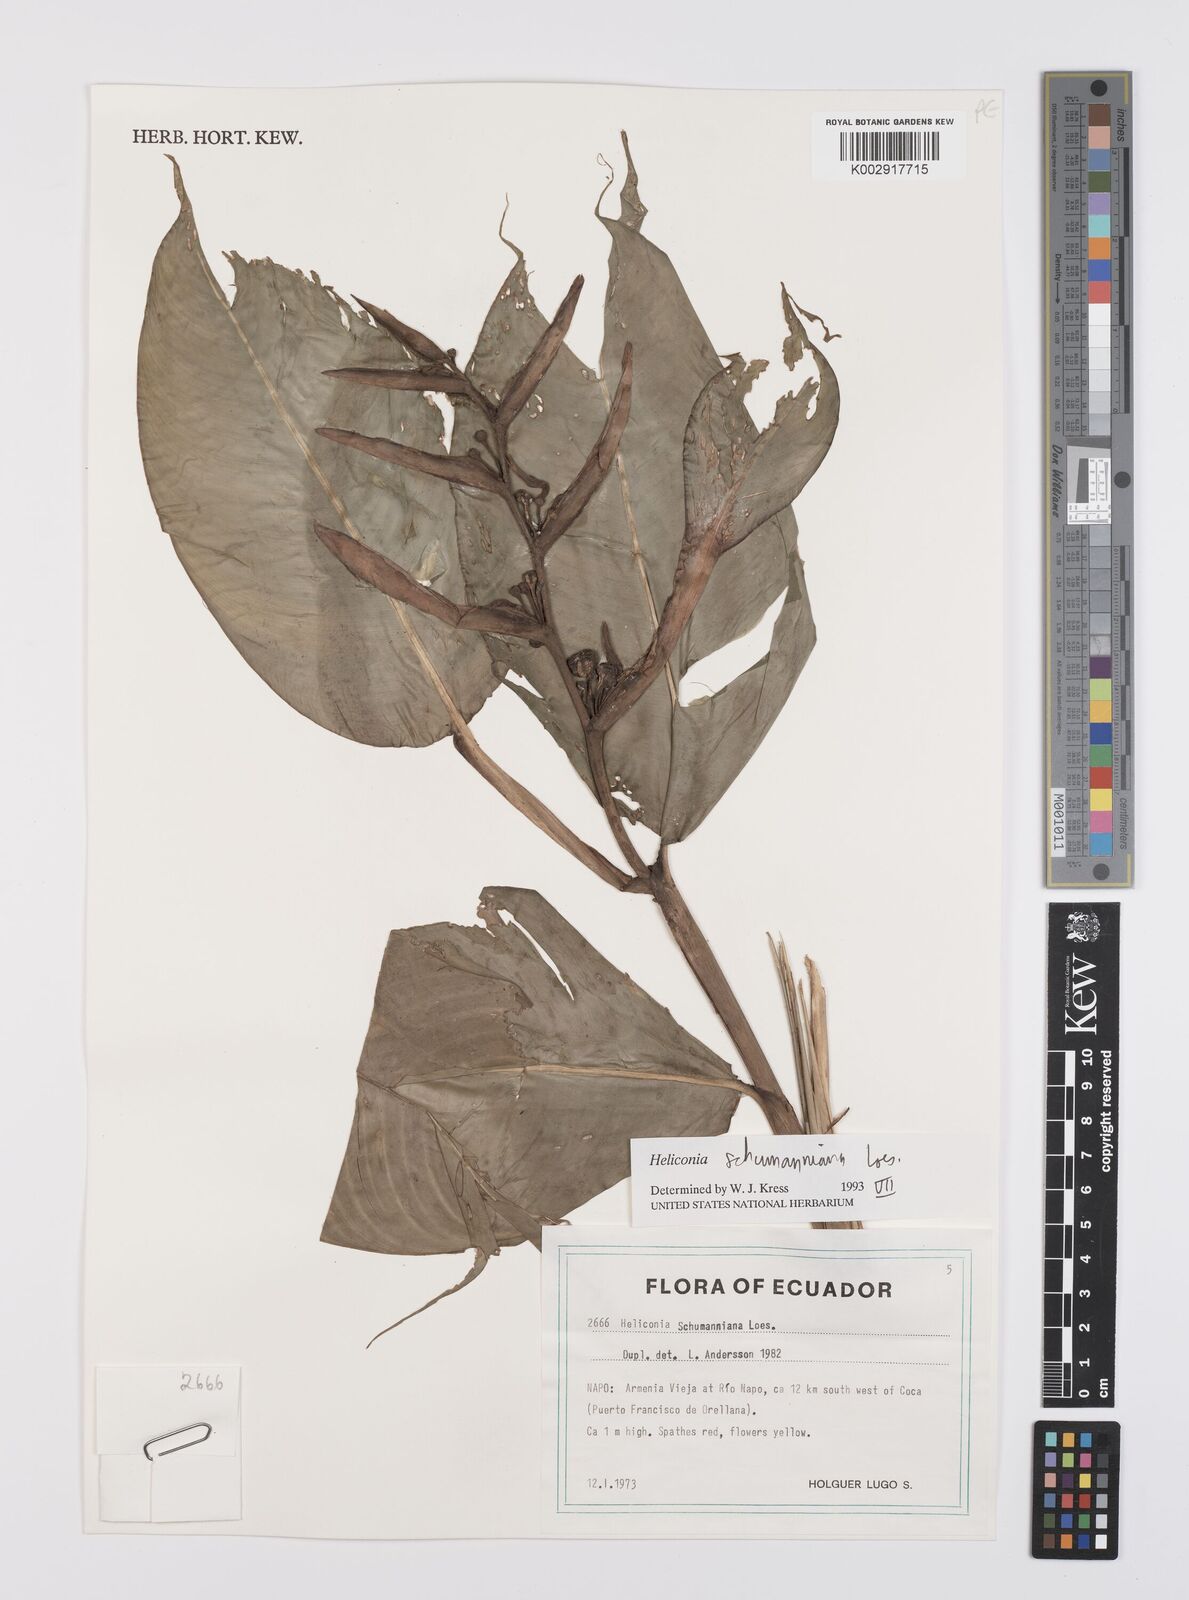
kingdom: Plantae
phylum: Tracheophyta
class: Liliopsida
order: Zingiberales
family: Heliconiaceae
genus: Heliconia
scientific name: Heliconia schumanniana
